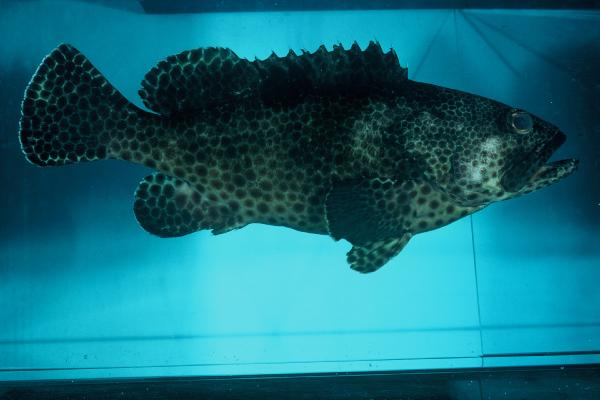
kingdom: Animalia
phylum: Chordata
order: Perciformes
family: Serranidae
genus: Epinephelus
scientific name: Epinephelus melanostigma
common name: Blackspot grouper
